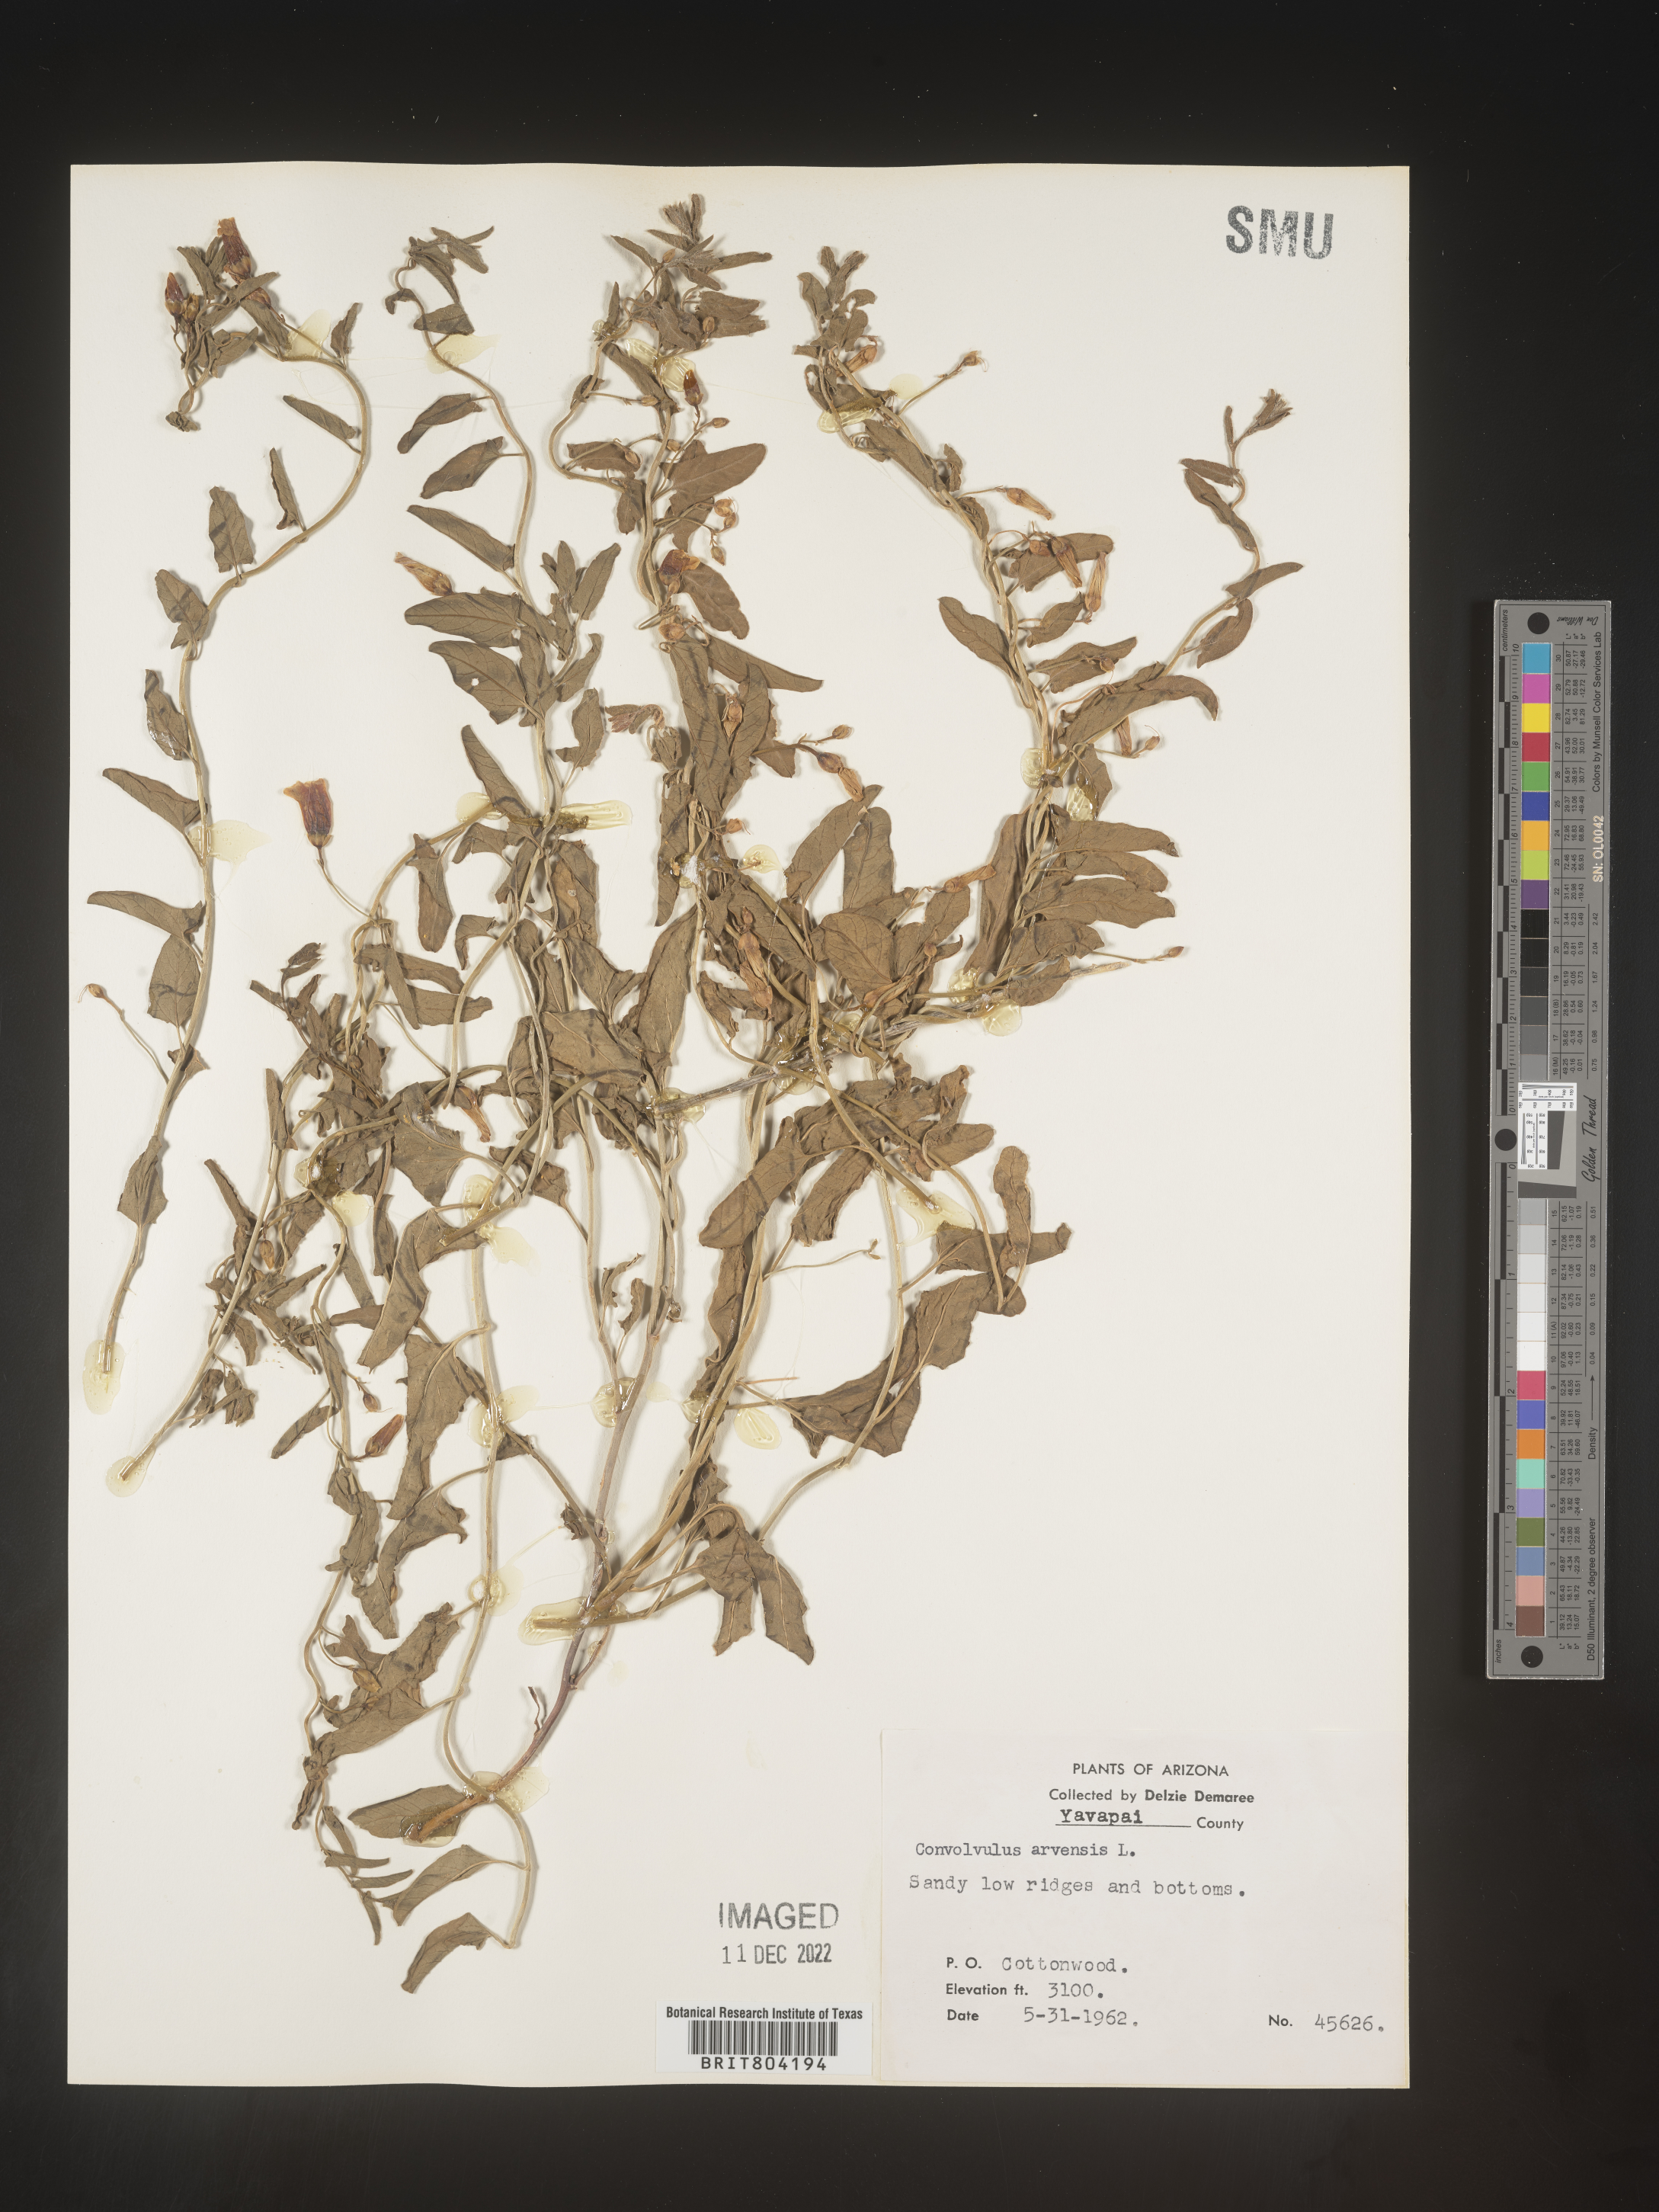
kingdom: Plantae
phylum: Tracheophyta
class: Magnoliopsida
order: Solanales
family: Convolvulaceae
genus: Convolvulus
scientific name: Convolvulus arvensis
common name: Field bindweed
